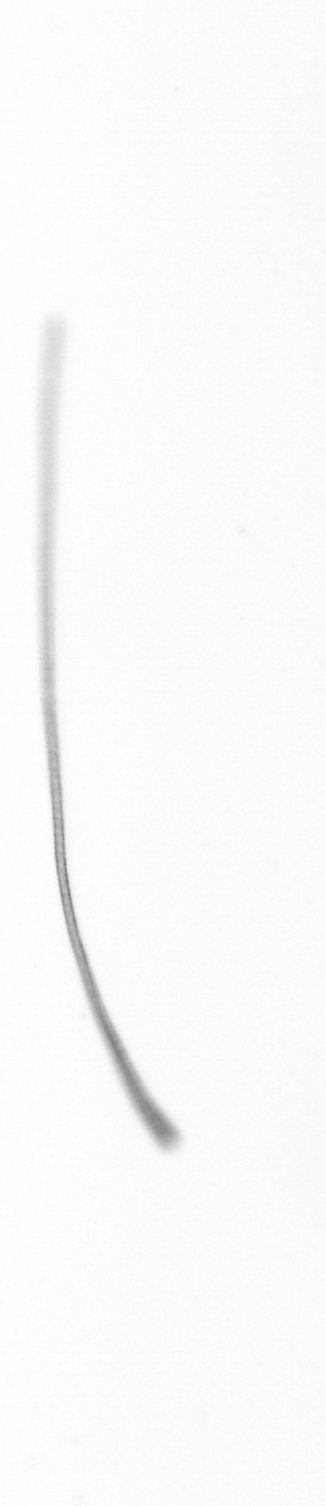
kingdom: Chromista
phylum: Ochrophyta
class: Bacillariophyceae
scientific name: Bacillariophyceae
